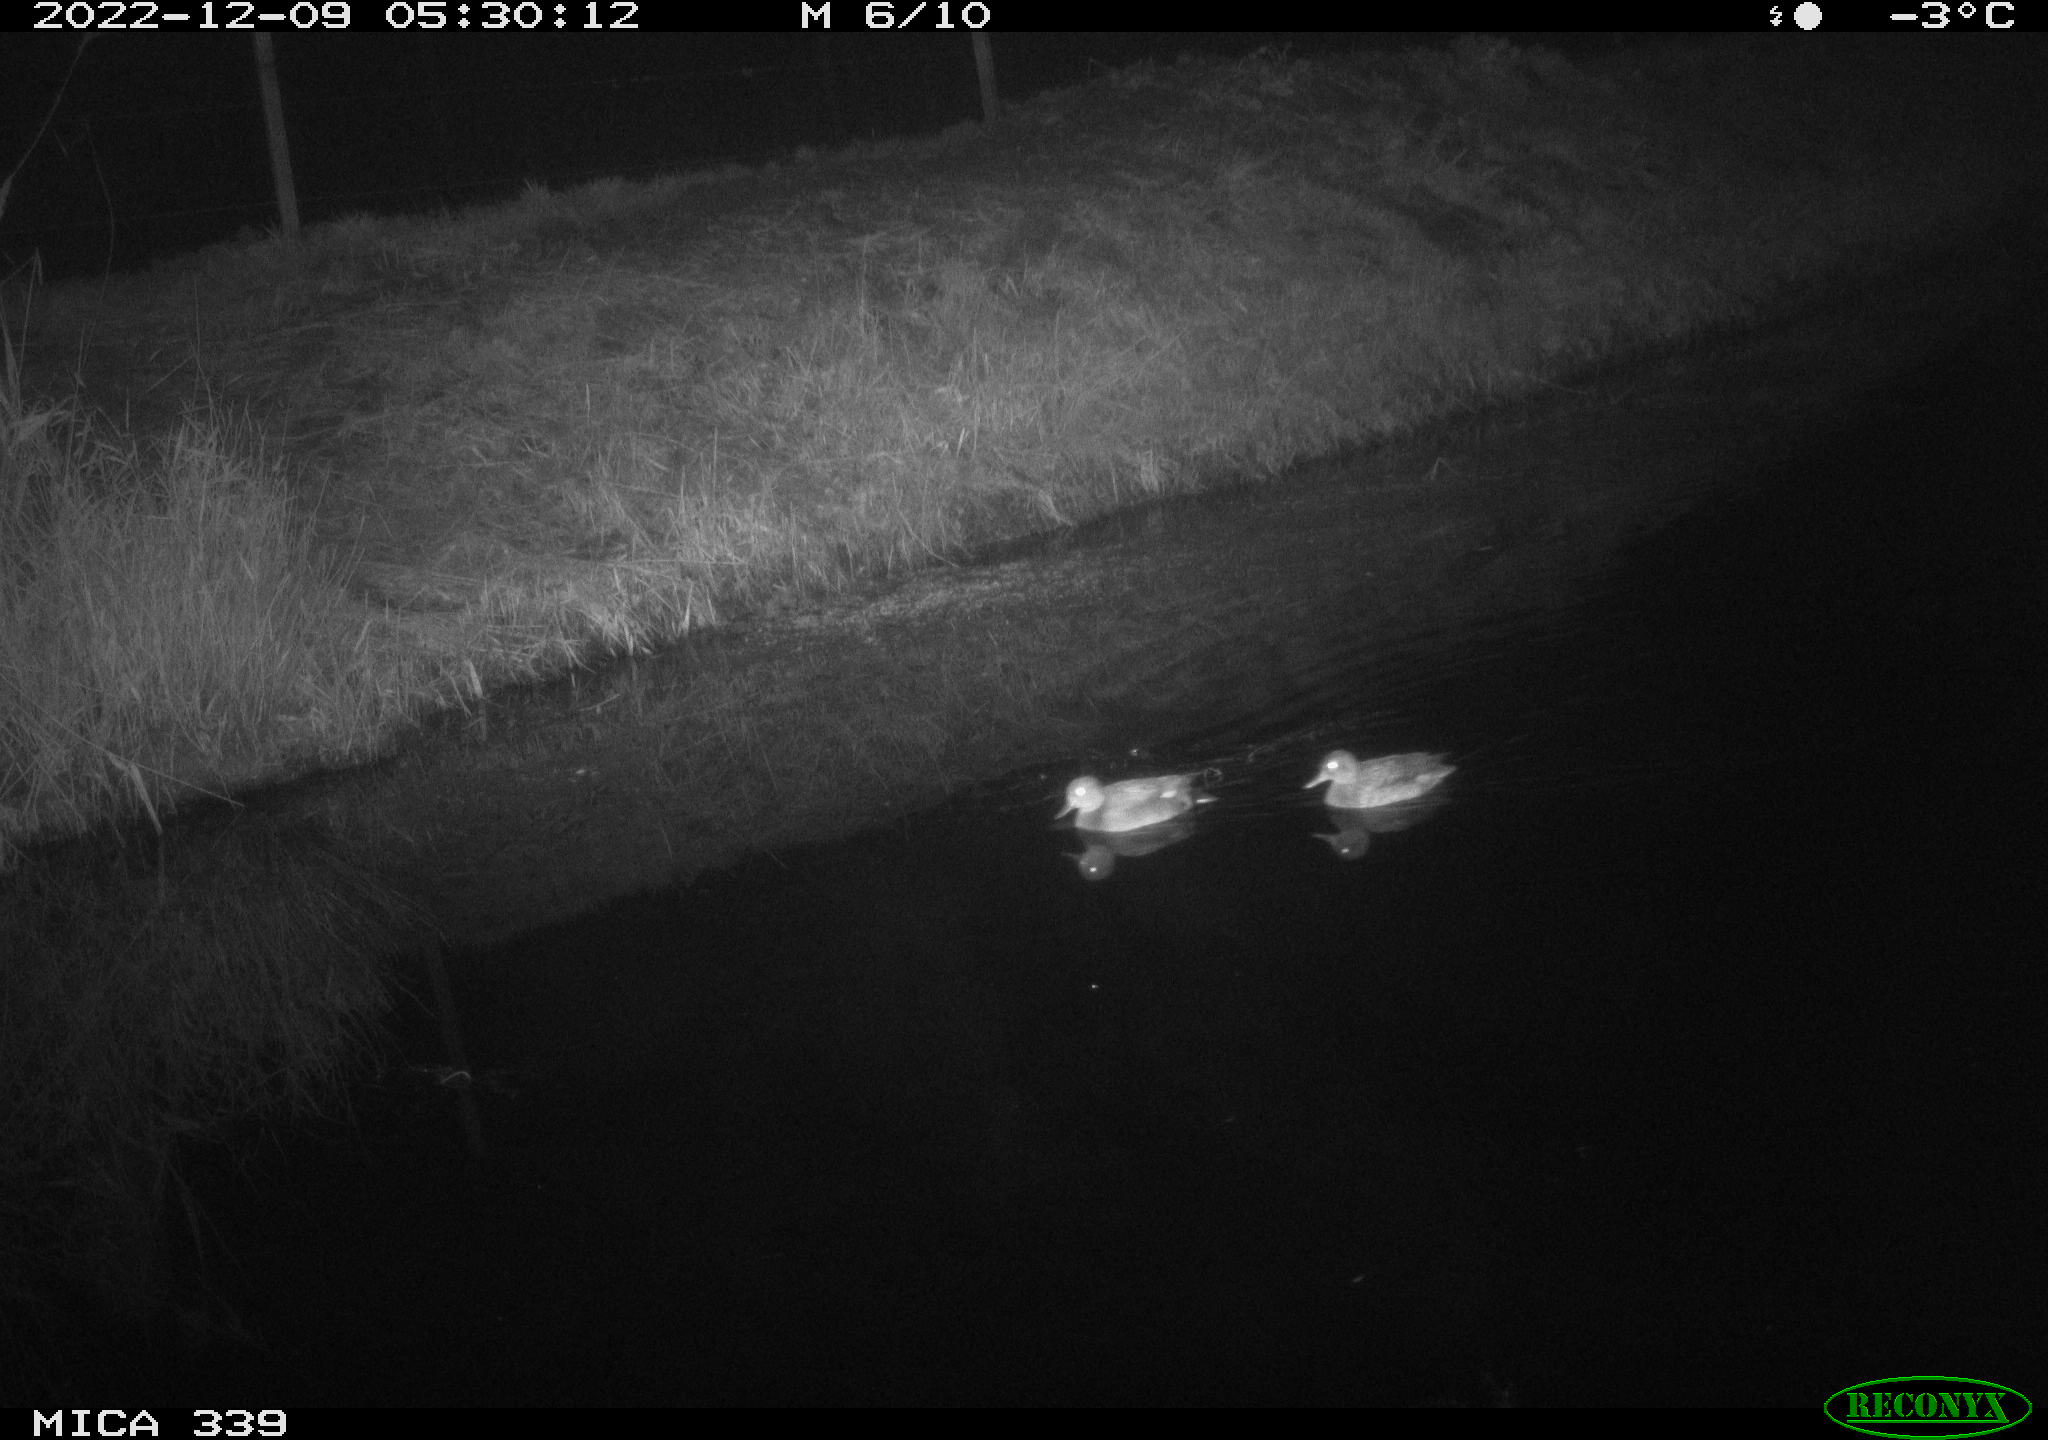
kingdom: Animalia
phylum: Chordata
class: Aves
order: Anseriformes
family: Anatidae
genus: Anas
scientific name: Anas
